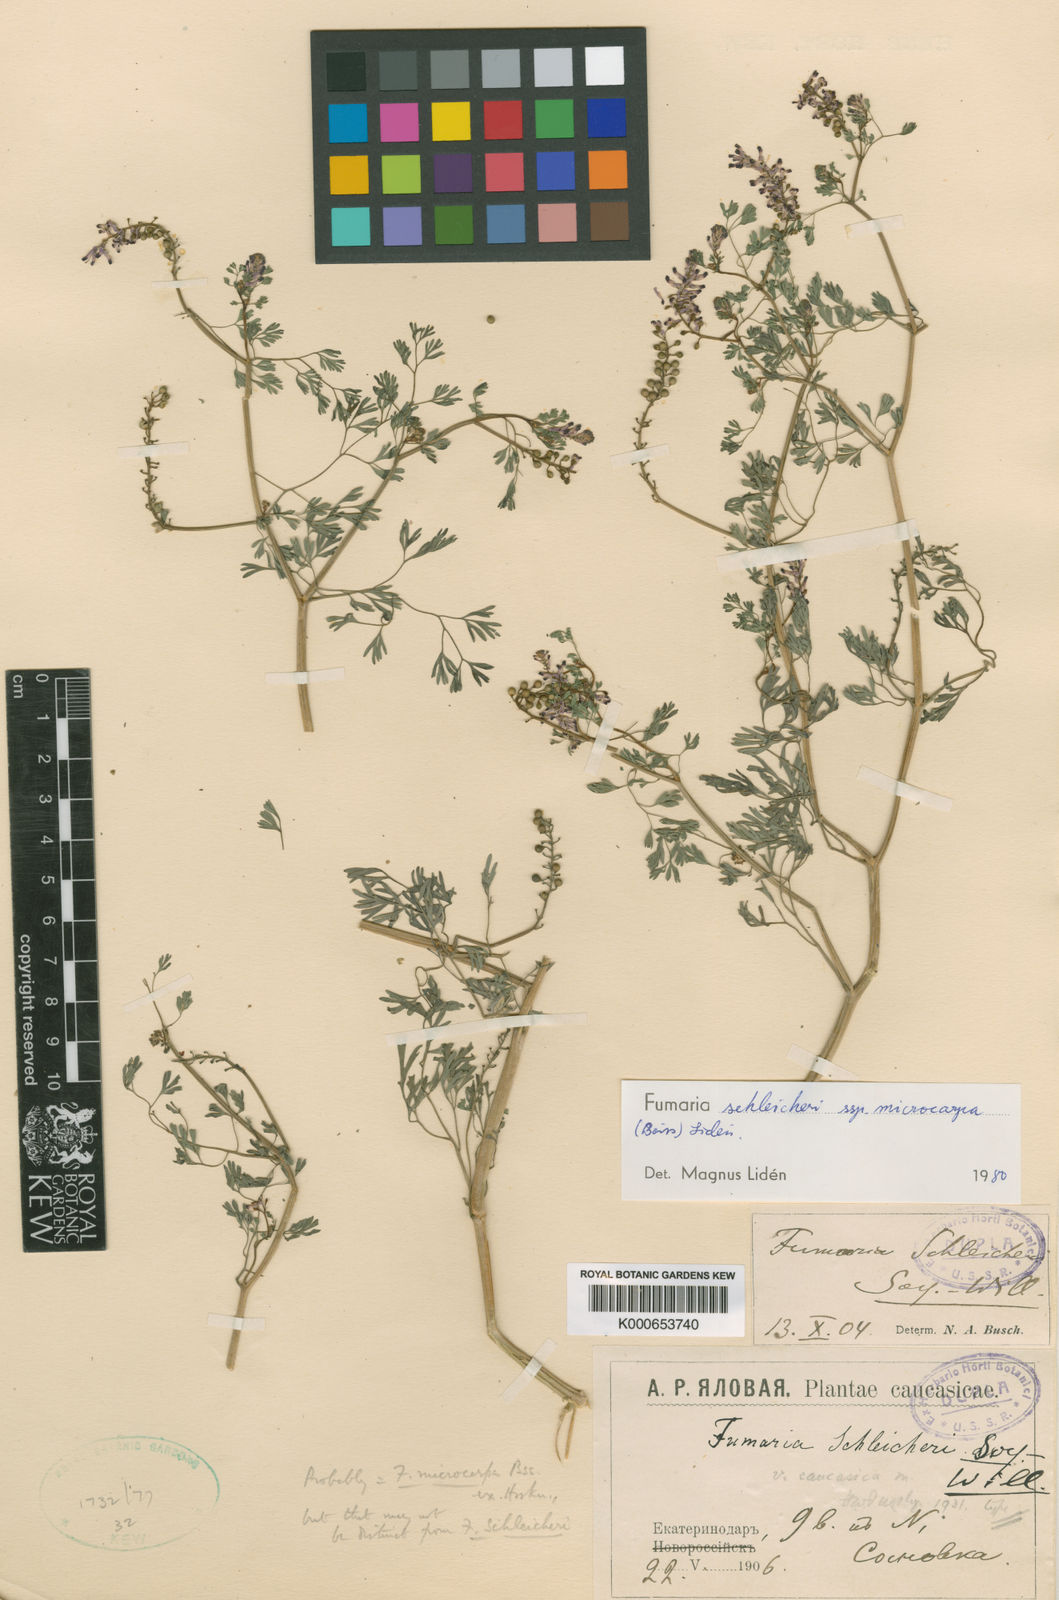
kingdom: Plantae
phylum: Tracheophyta
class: Magnoliopsida
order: Ranunculales
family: Papaveraceae
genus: Fumaria
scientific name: Fumaria schleicheri
